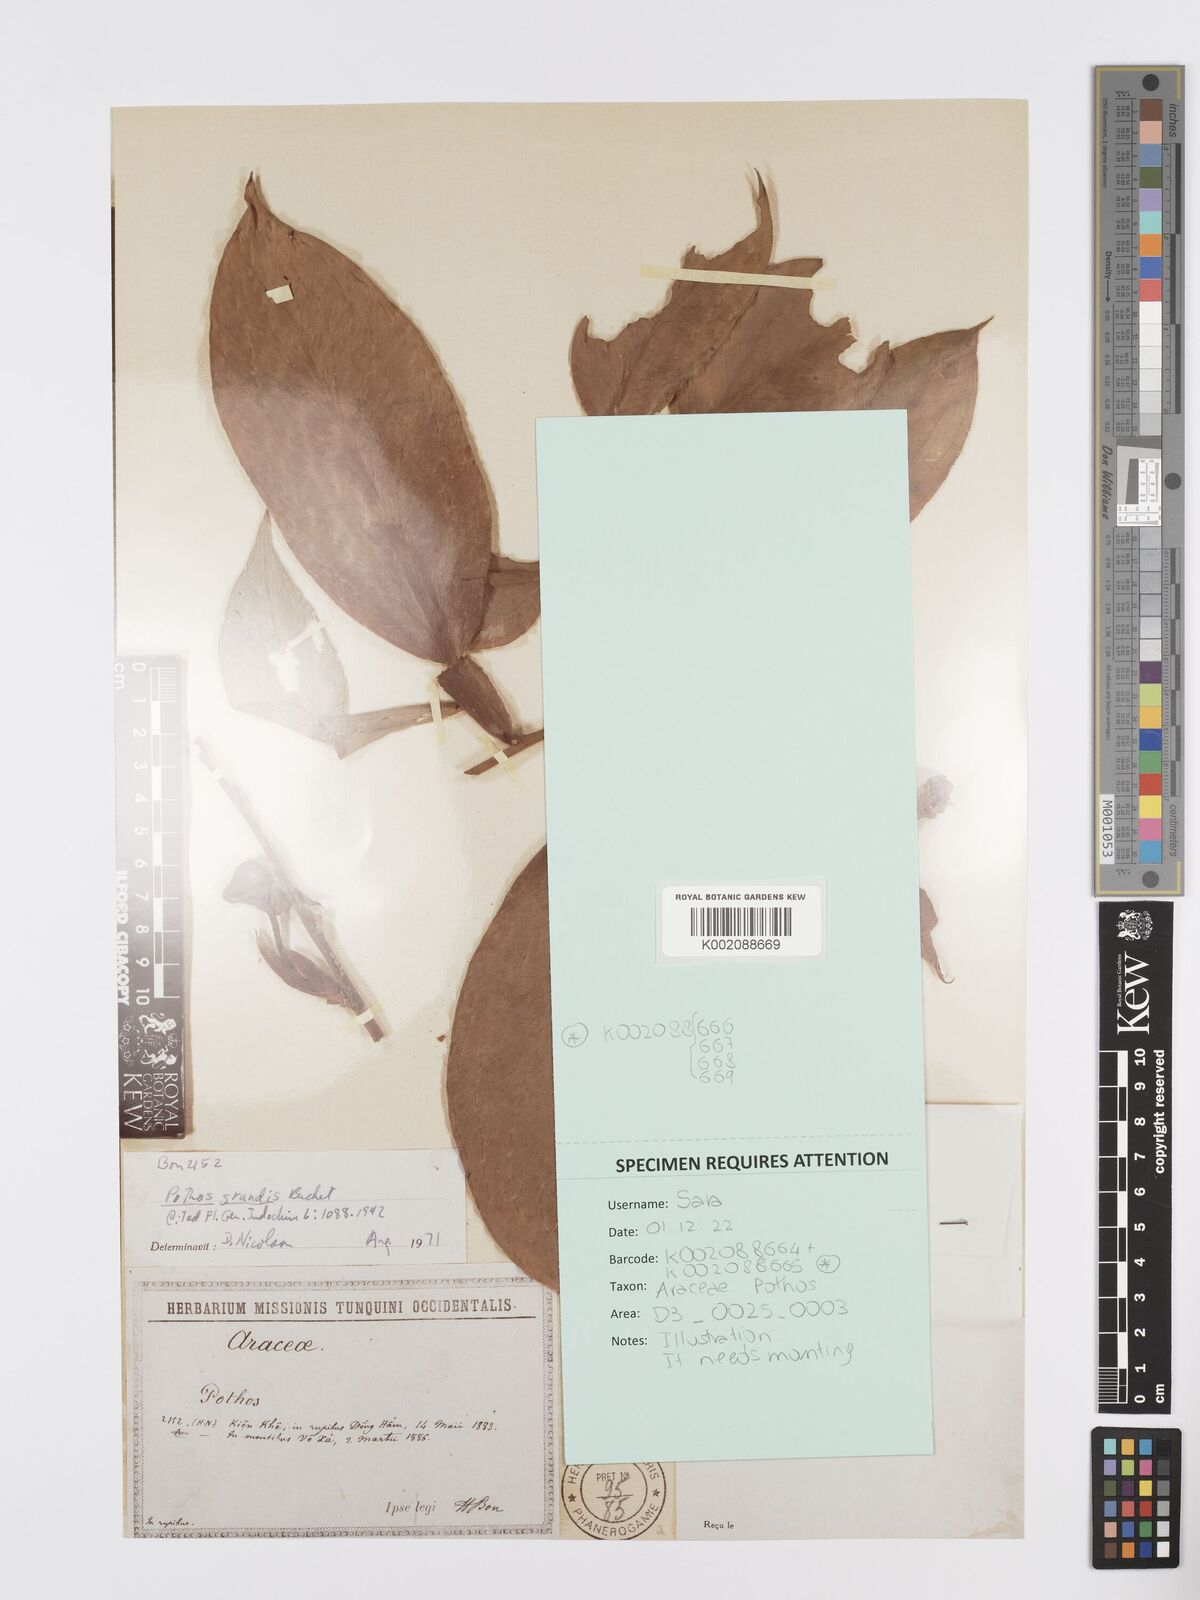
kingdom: Plantae
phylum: Tracheophyta
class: Liliopsida
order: Alismatales
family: Araceae
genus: Pothos
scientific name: Pothos grandis
